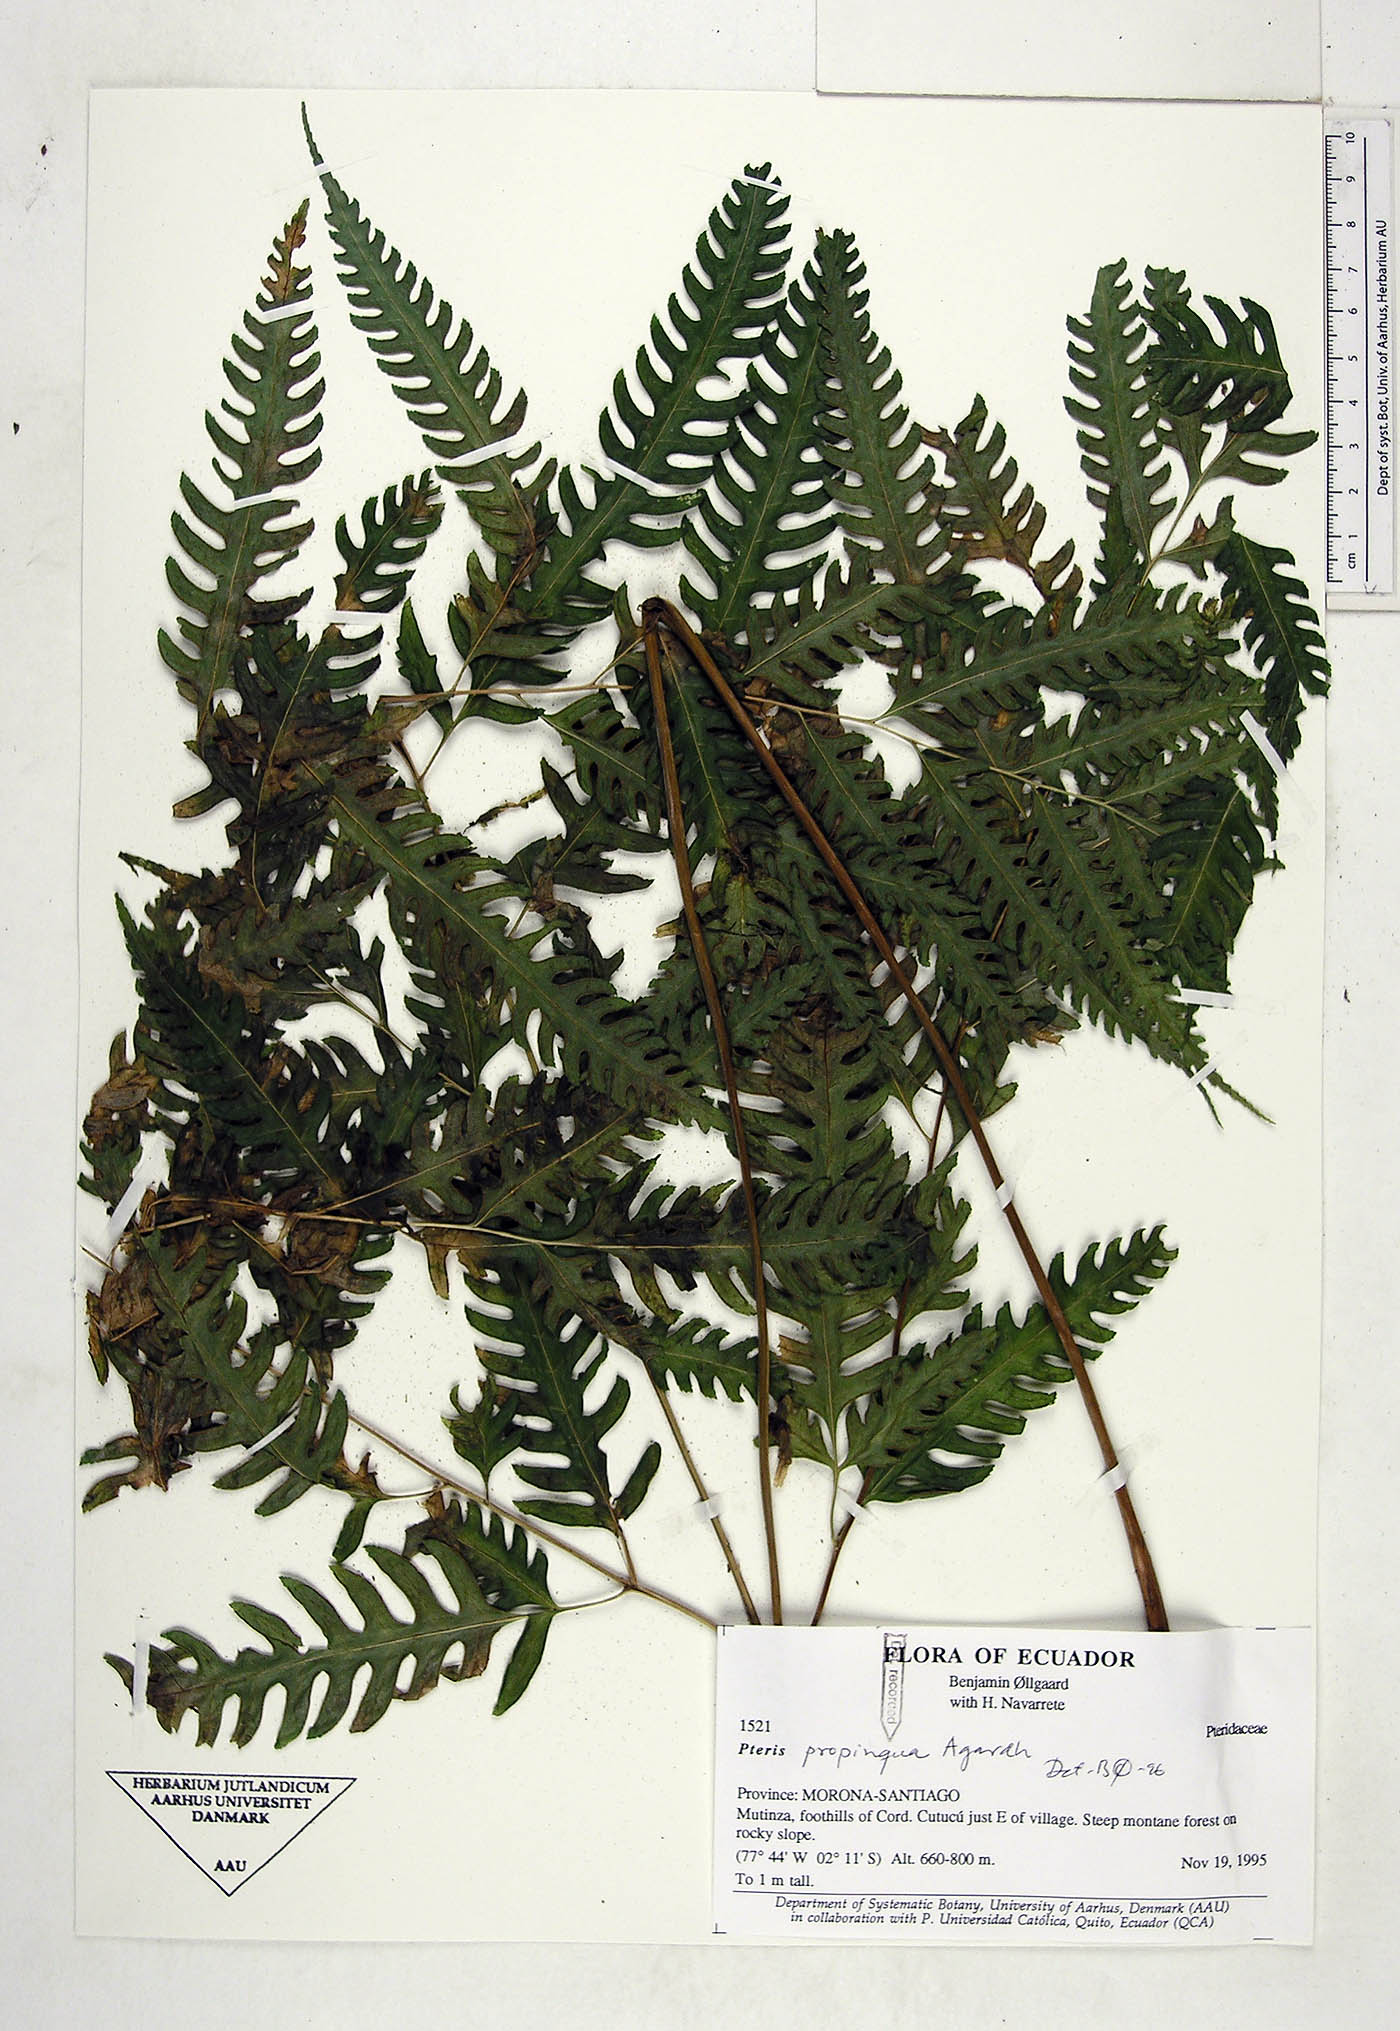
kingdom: Plantae
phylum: Tracheophyta
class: Polypodiopsida
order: Polypodiales
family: Pteridaceae
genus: Pteris
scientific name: Pteris propinqua
